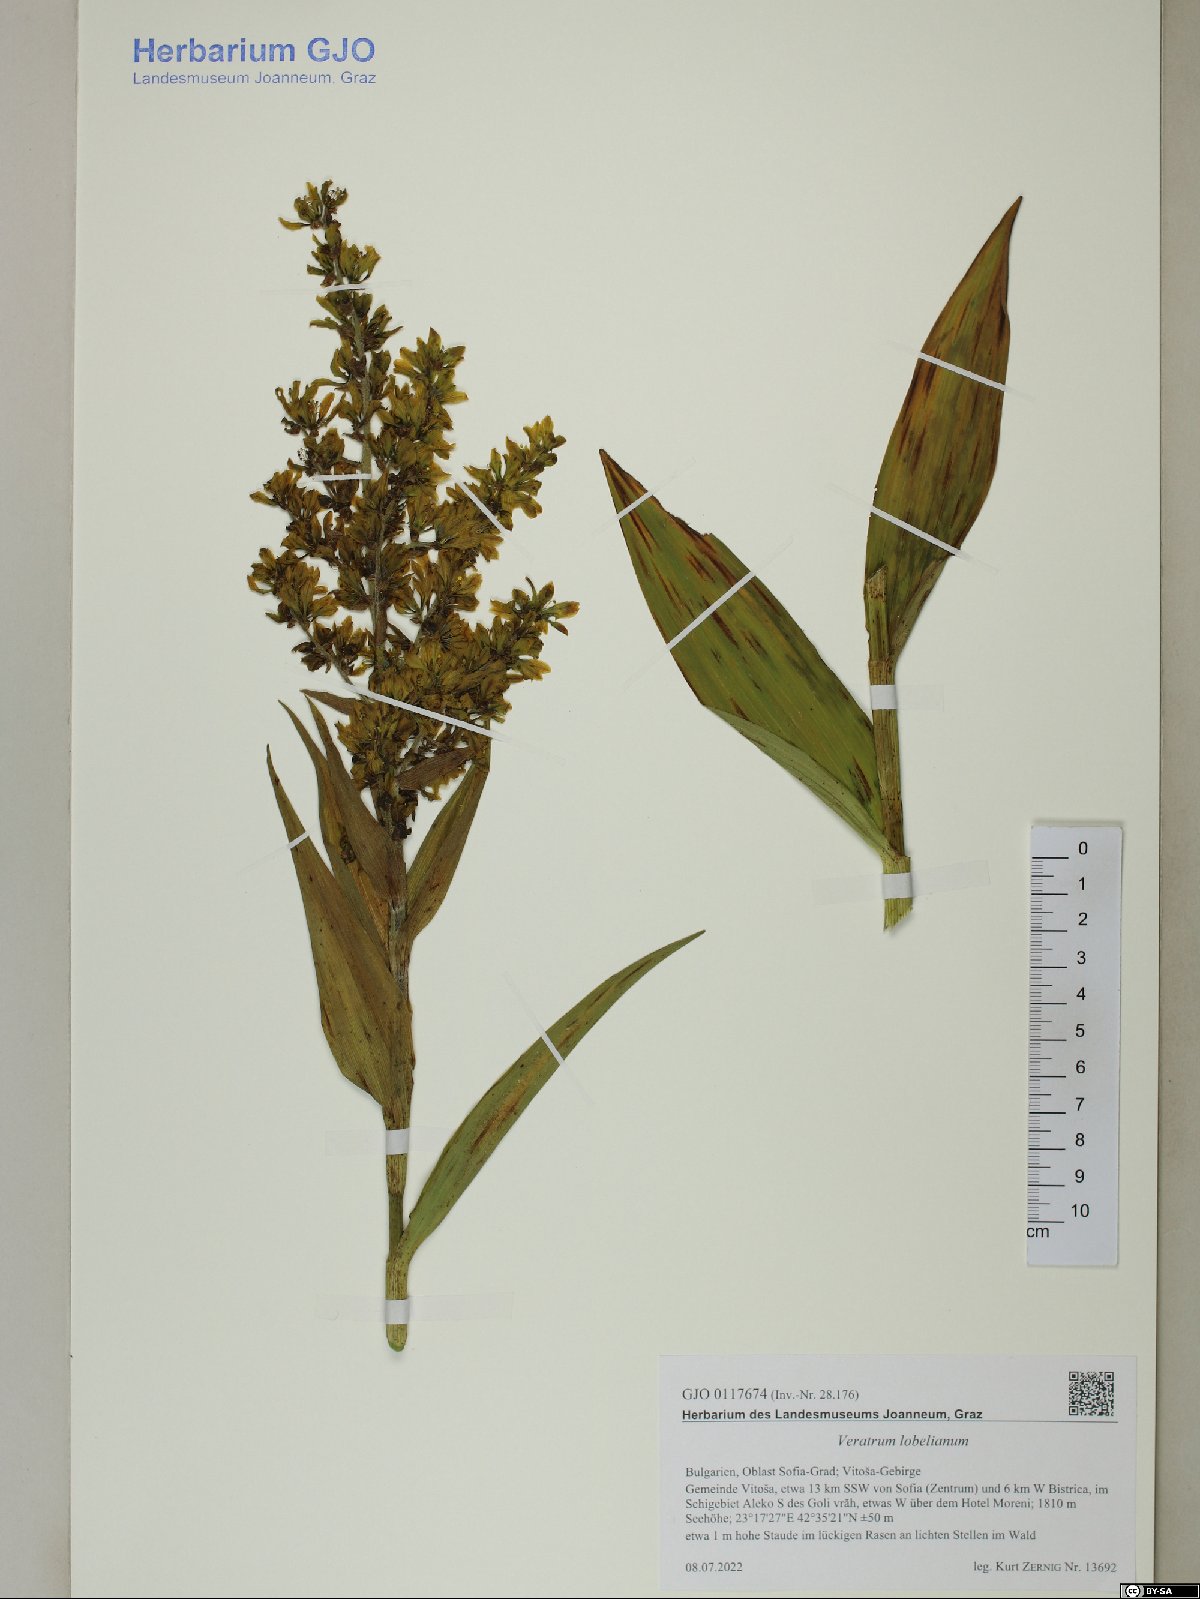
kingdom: Plantae
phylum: Tracheophyta
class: Liliopsida
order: Liliales
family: Melanthiaceae
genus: Veratrum
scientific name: Veratrum lobelianum
